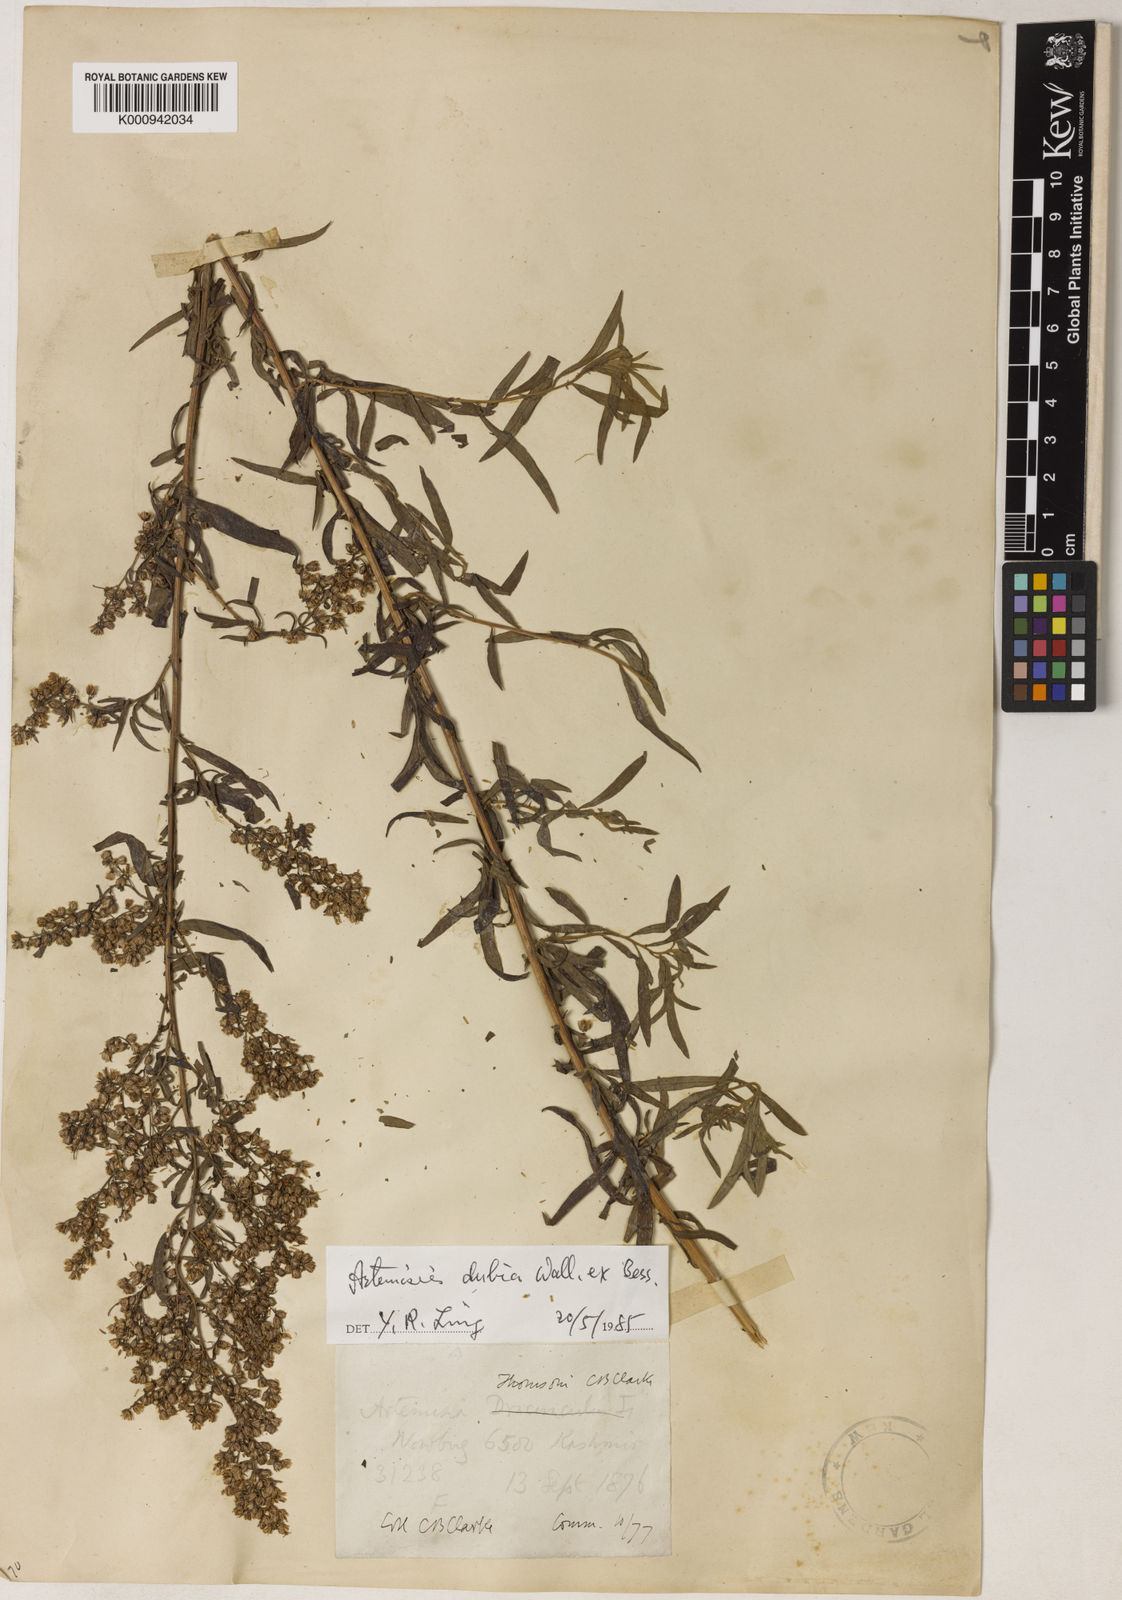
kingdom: Plantae
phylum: Tracheophyta
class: Magnoliopsida
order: Asterales
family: Asteraceae
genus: Artemisia
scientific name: Artemisia dubia
